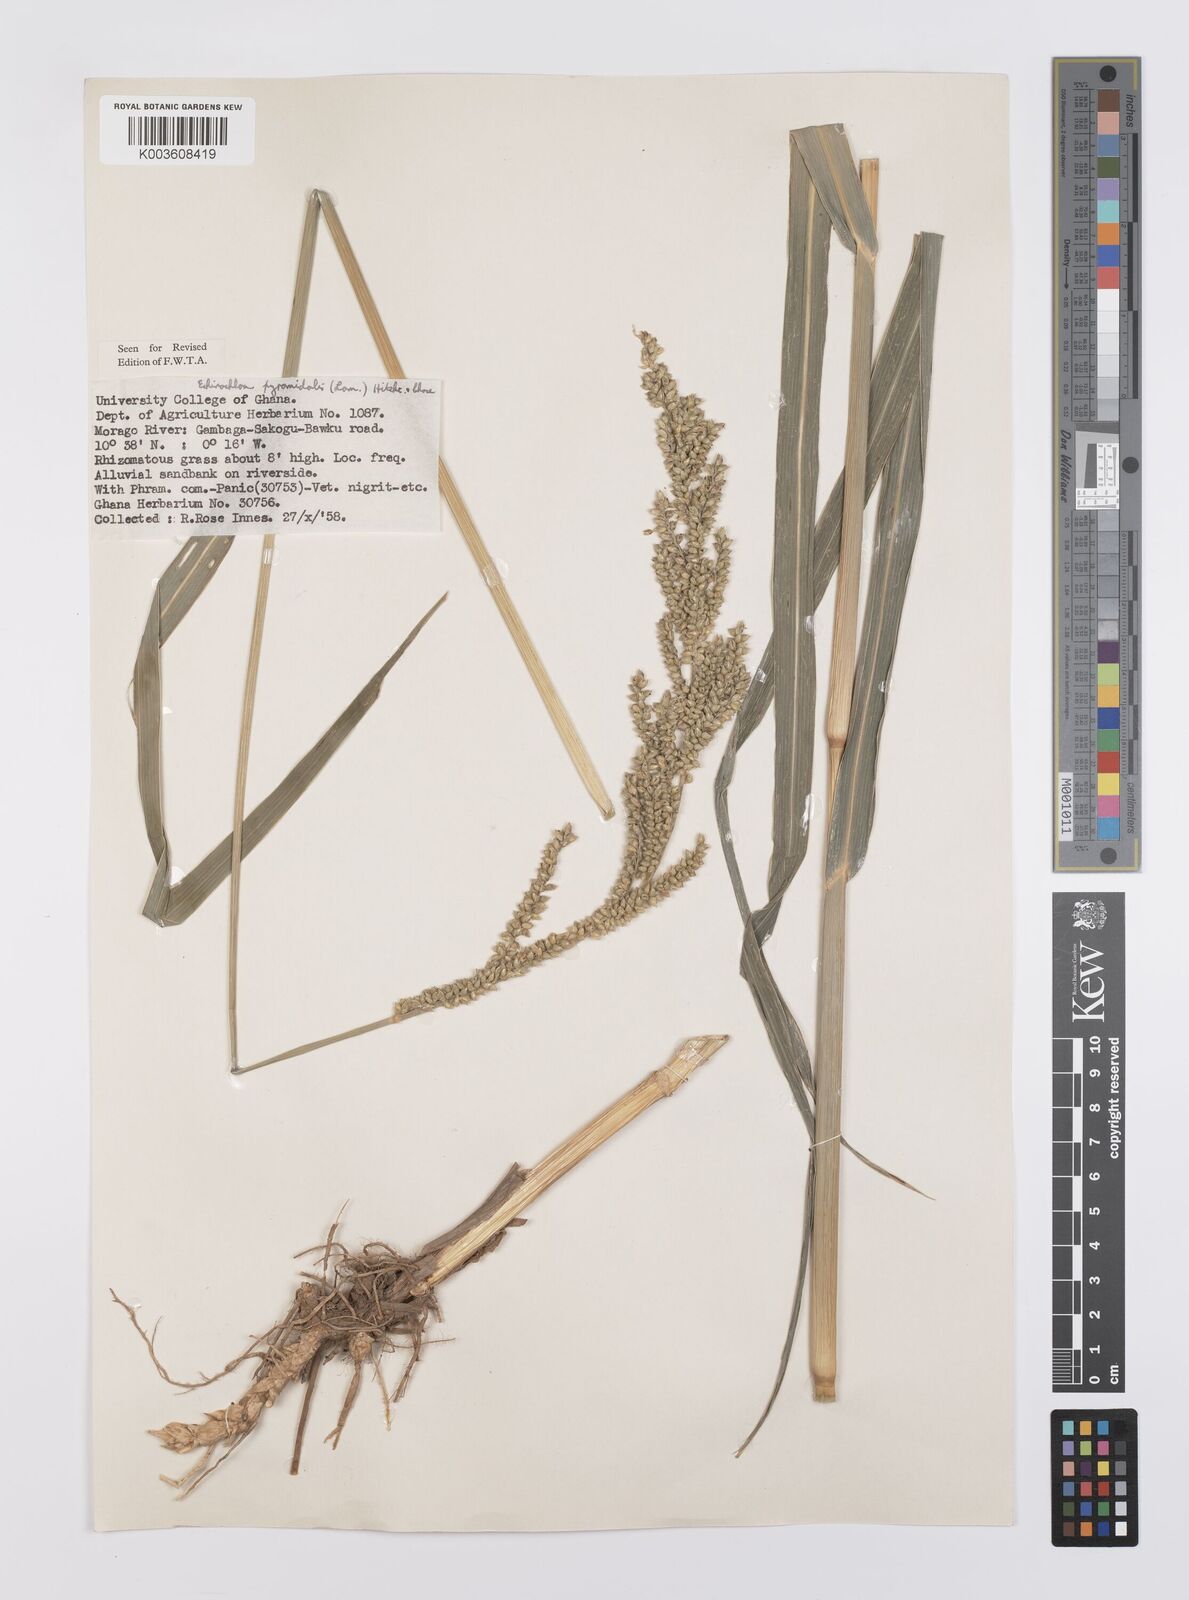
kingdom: Plantae
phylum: Tracheophyta
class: Liliopsida
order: Poales
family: Poaceae
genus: Echinochloa
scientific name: Echinochloa pyramidalis
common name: Antelope grass
